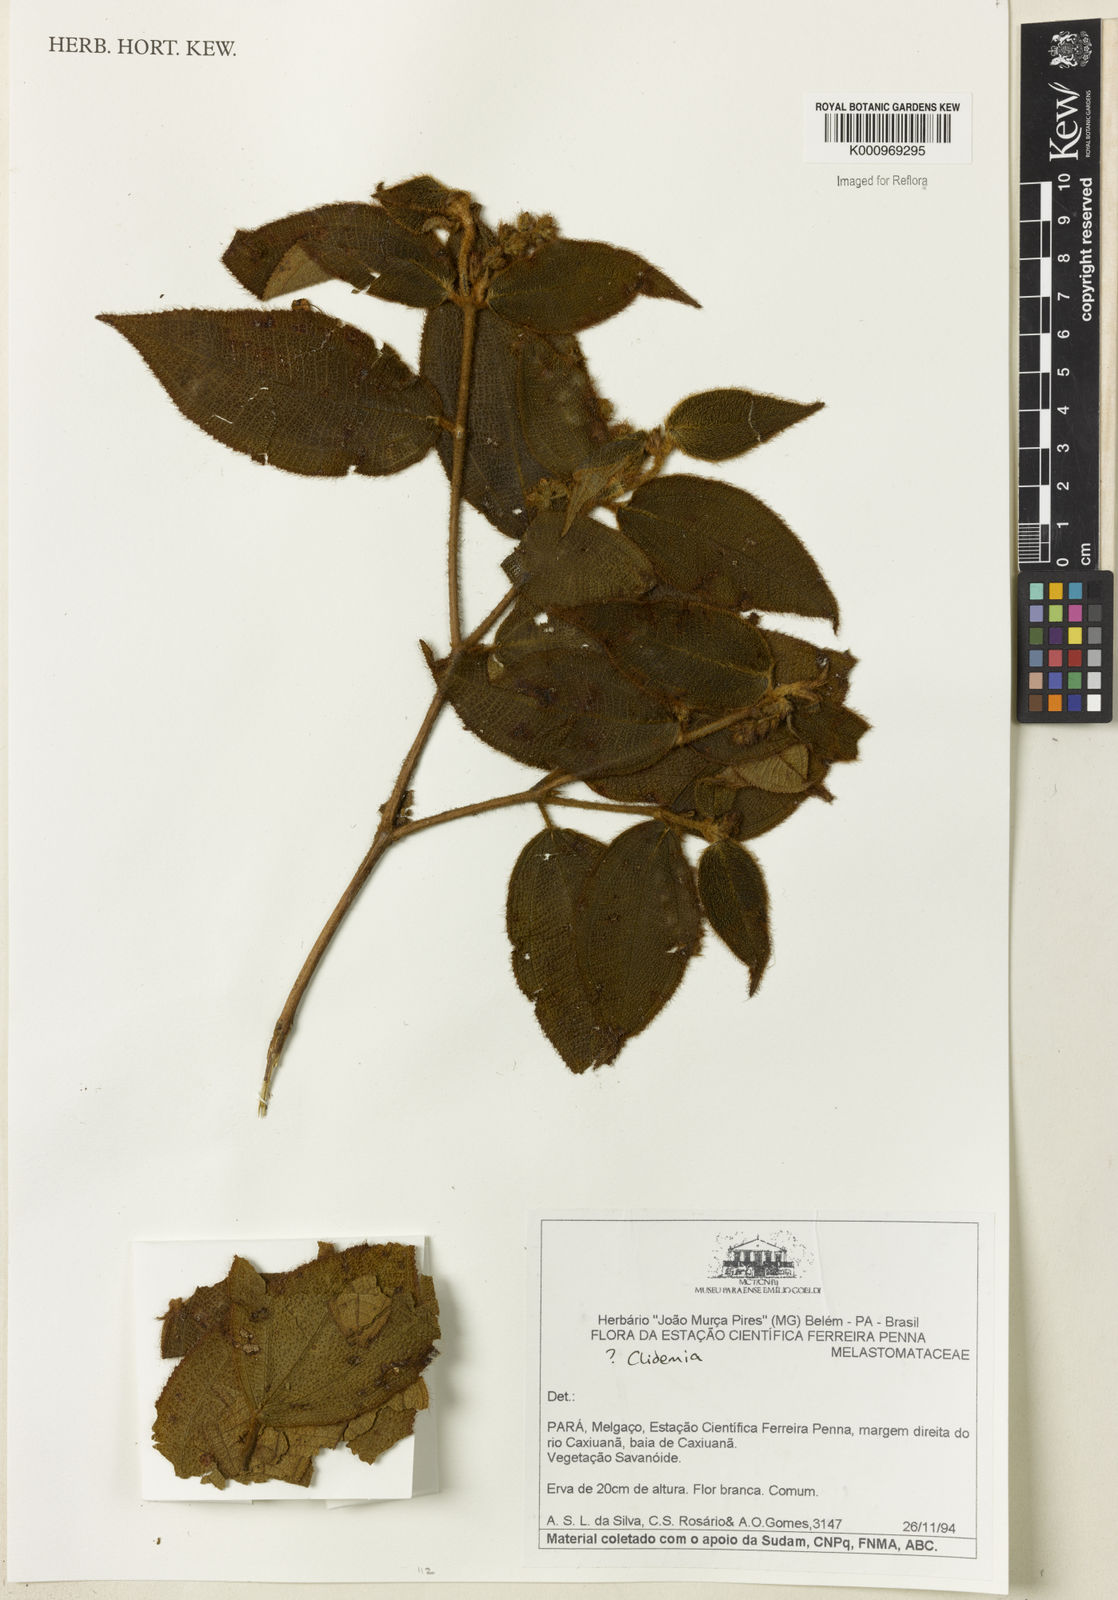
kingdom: Plantae
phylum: Tracheophyta
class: Magnoliopsida
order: Myrtales
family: Melastomataceae
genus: Miconia
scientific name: Miconia
